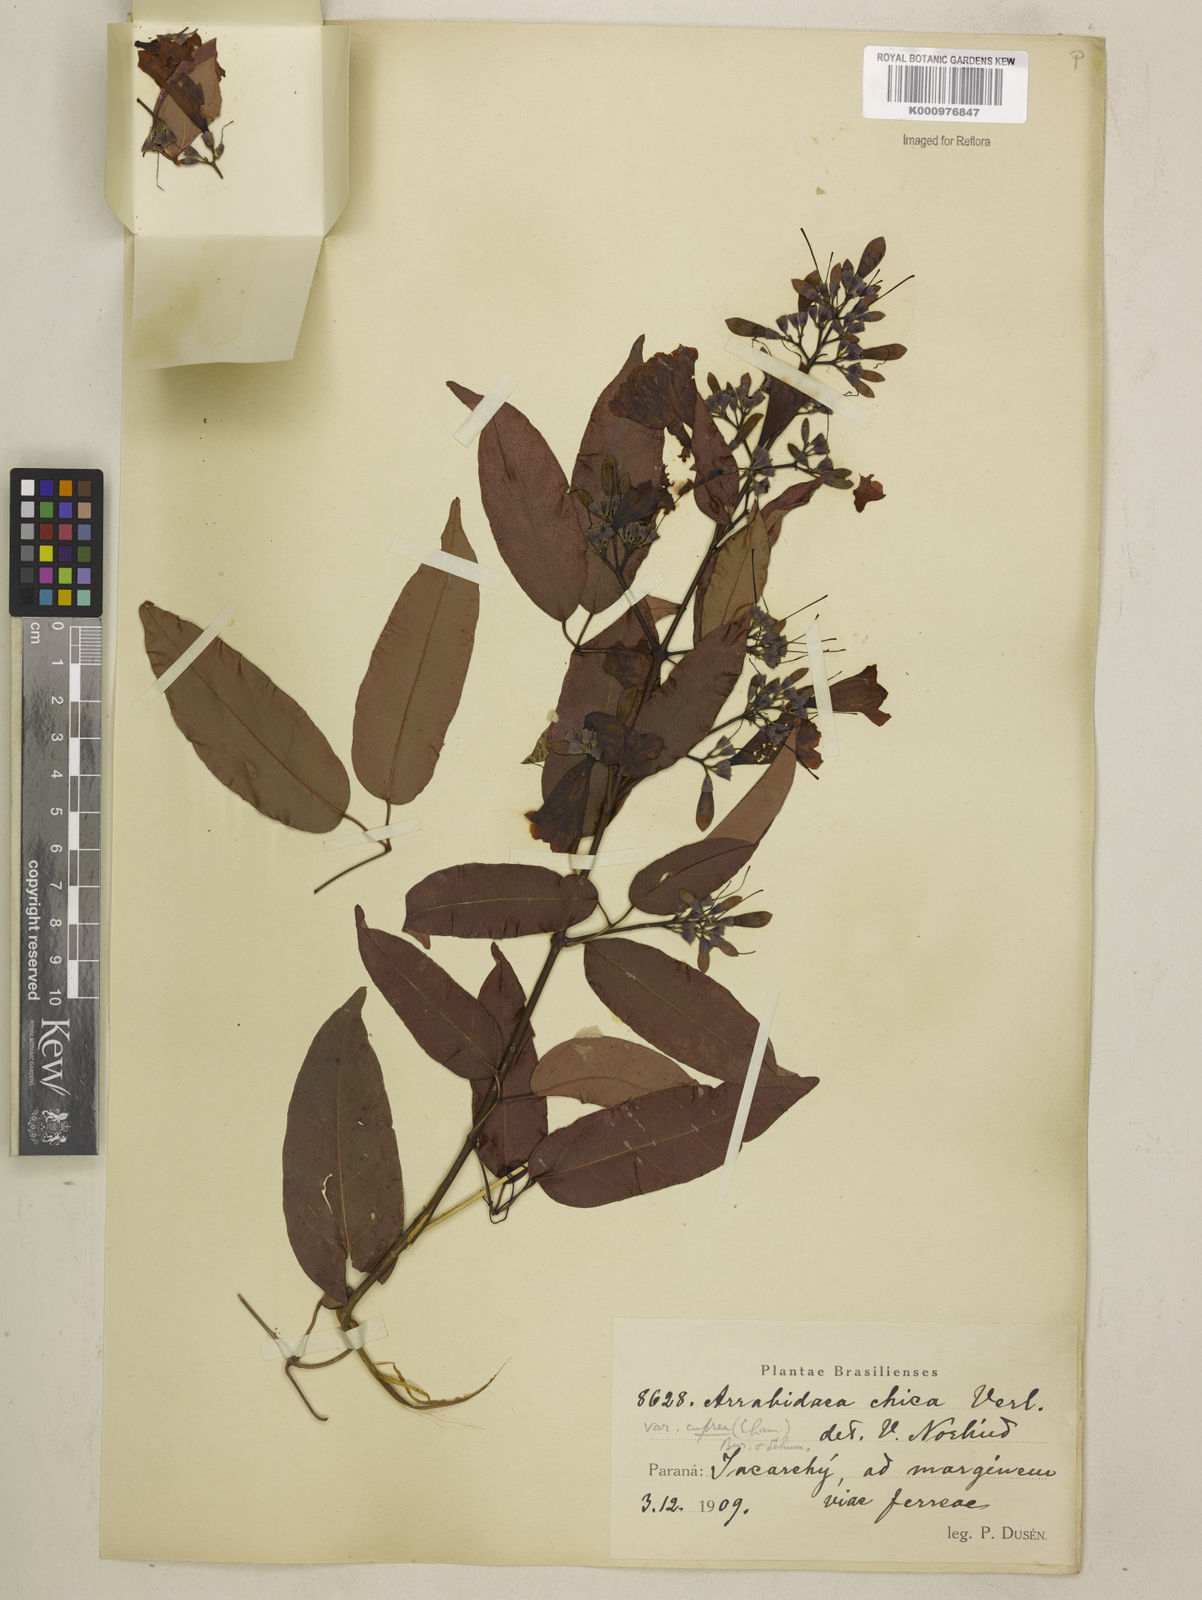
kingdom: Plantae
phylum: Tracheophyta
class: Magnoliopsida
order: Lamiales
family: Bignoniaceae
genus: Fridericia
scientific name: Fridericia chica
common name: Cricketvine
